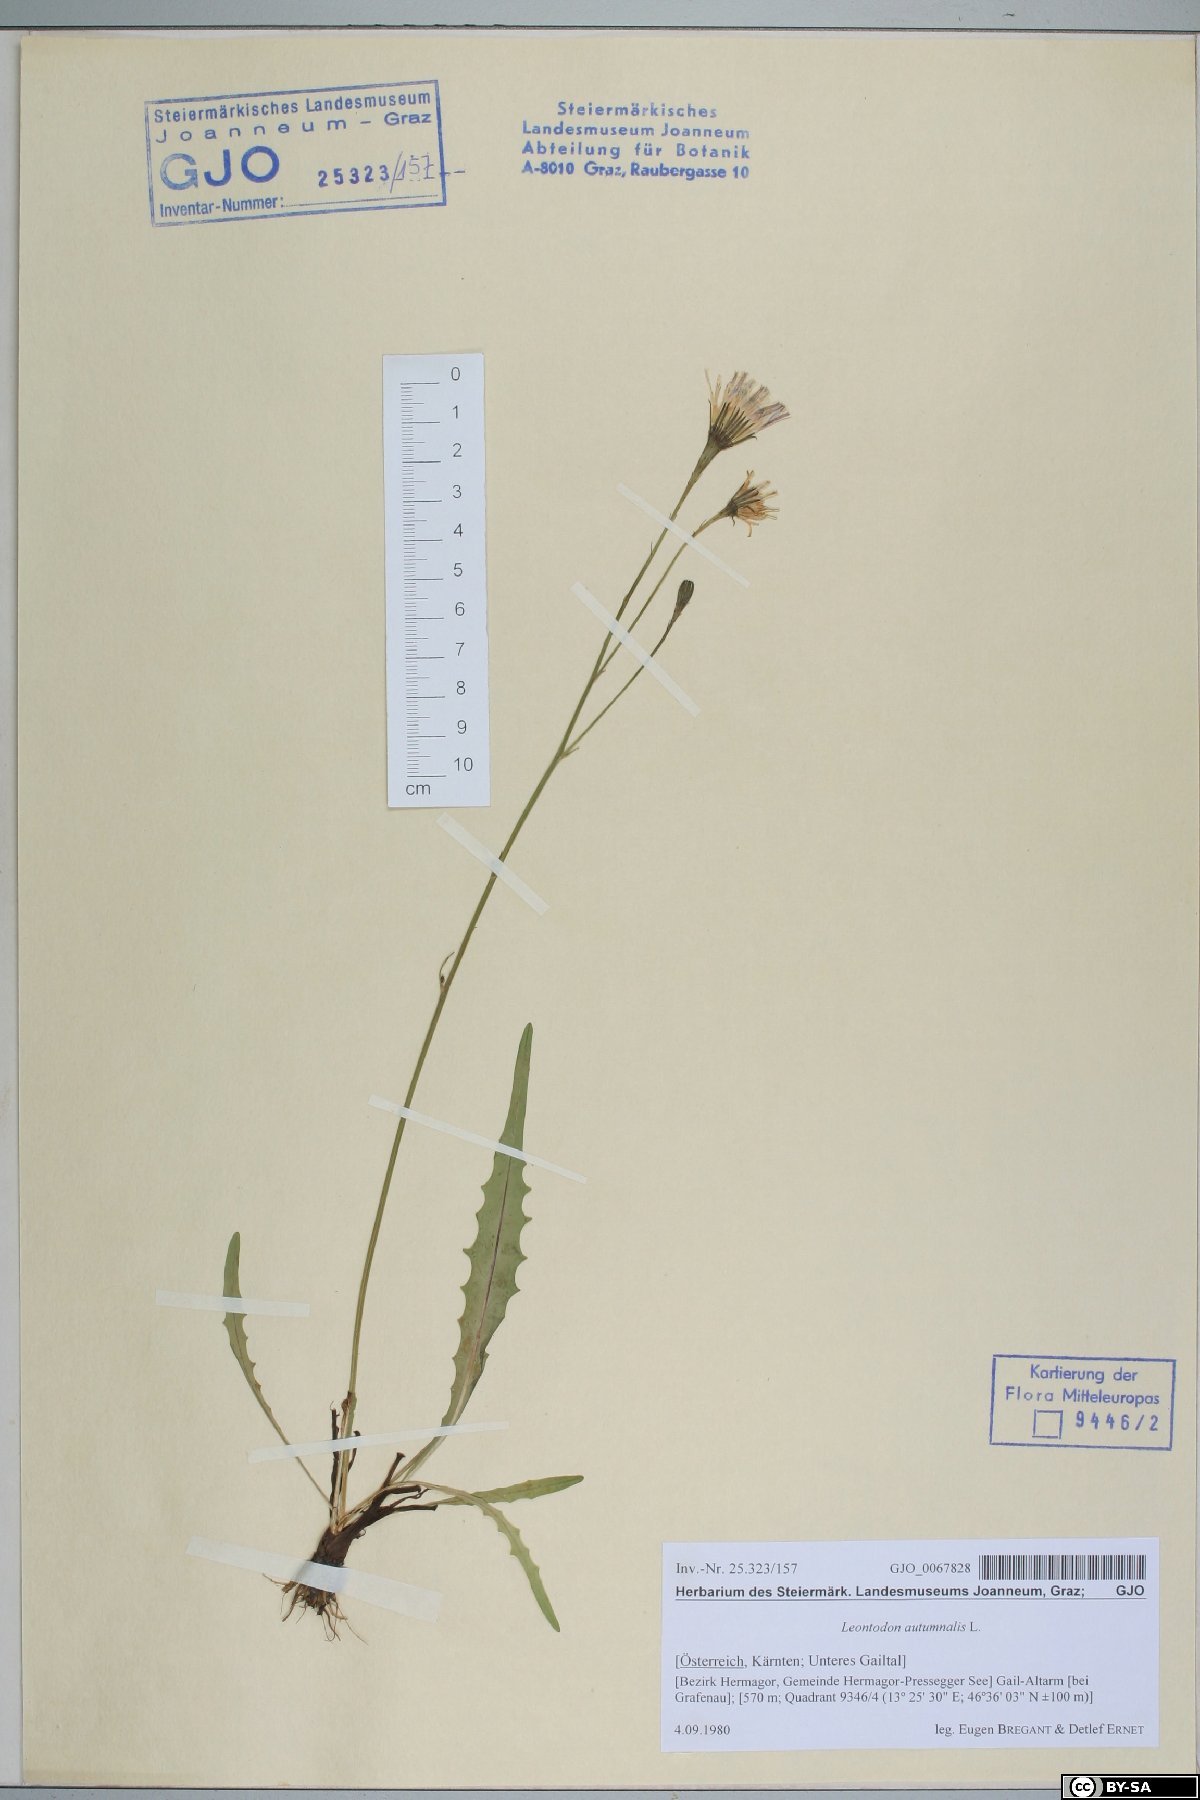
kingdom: Plantae
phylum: Tracheophyta
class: Magnoliopsida
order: Asterales
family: Asteraceae
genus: Scorzoneroides
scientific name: Scorzoneroides autumnalis
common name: Autumn hawkbit
